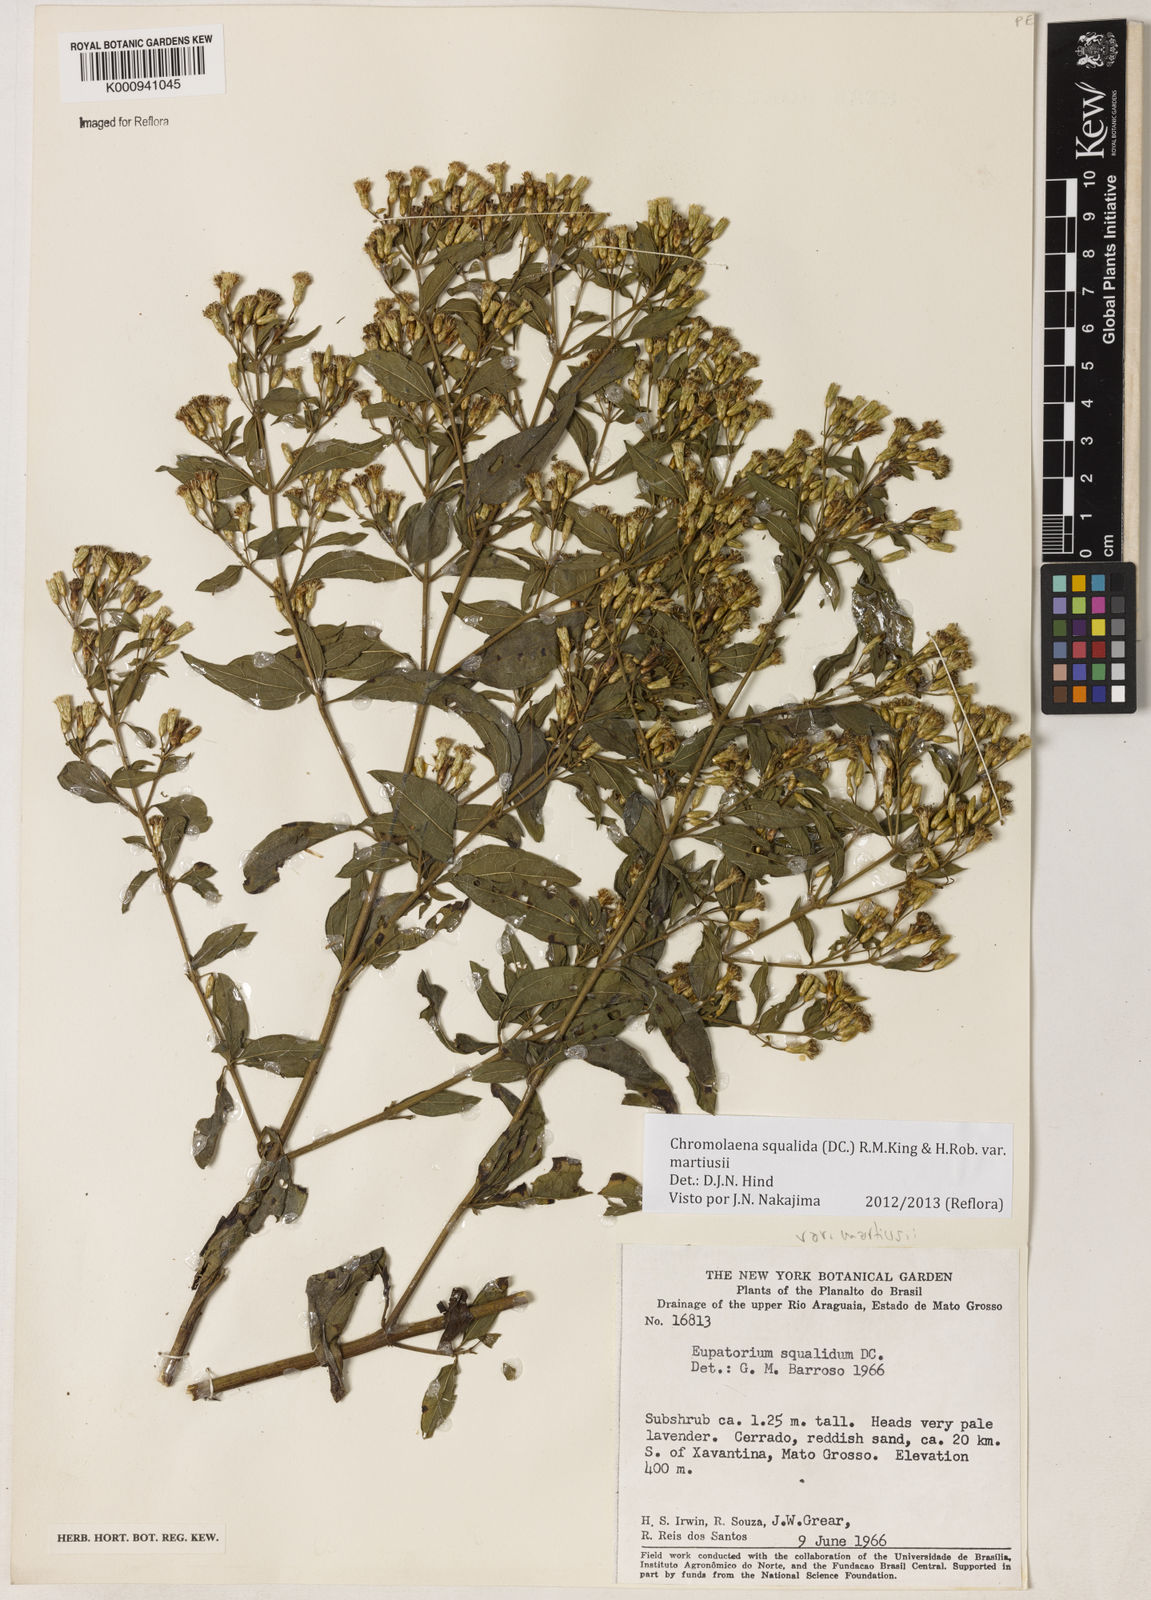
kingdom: Plantae
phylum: Tracheophyta
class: Magnoliopsida
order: Asterales
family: Asteraceae
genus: Chromolaena
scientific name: Chromolaena squalida
